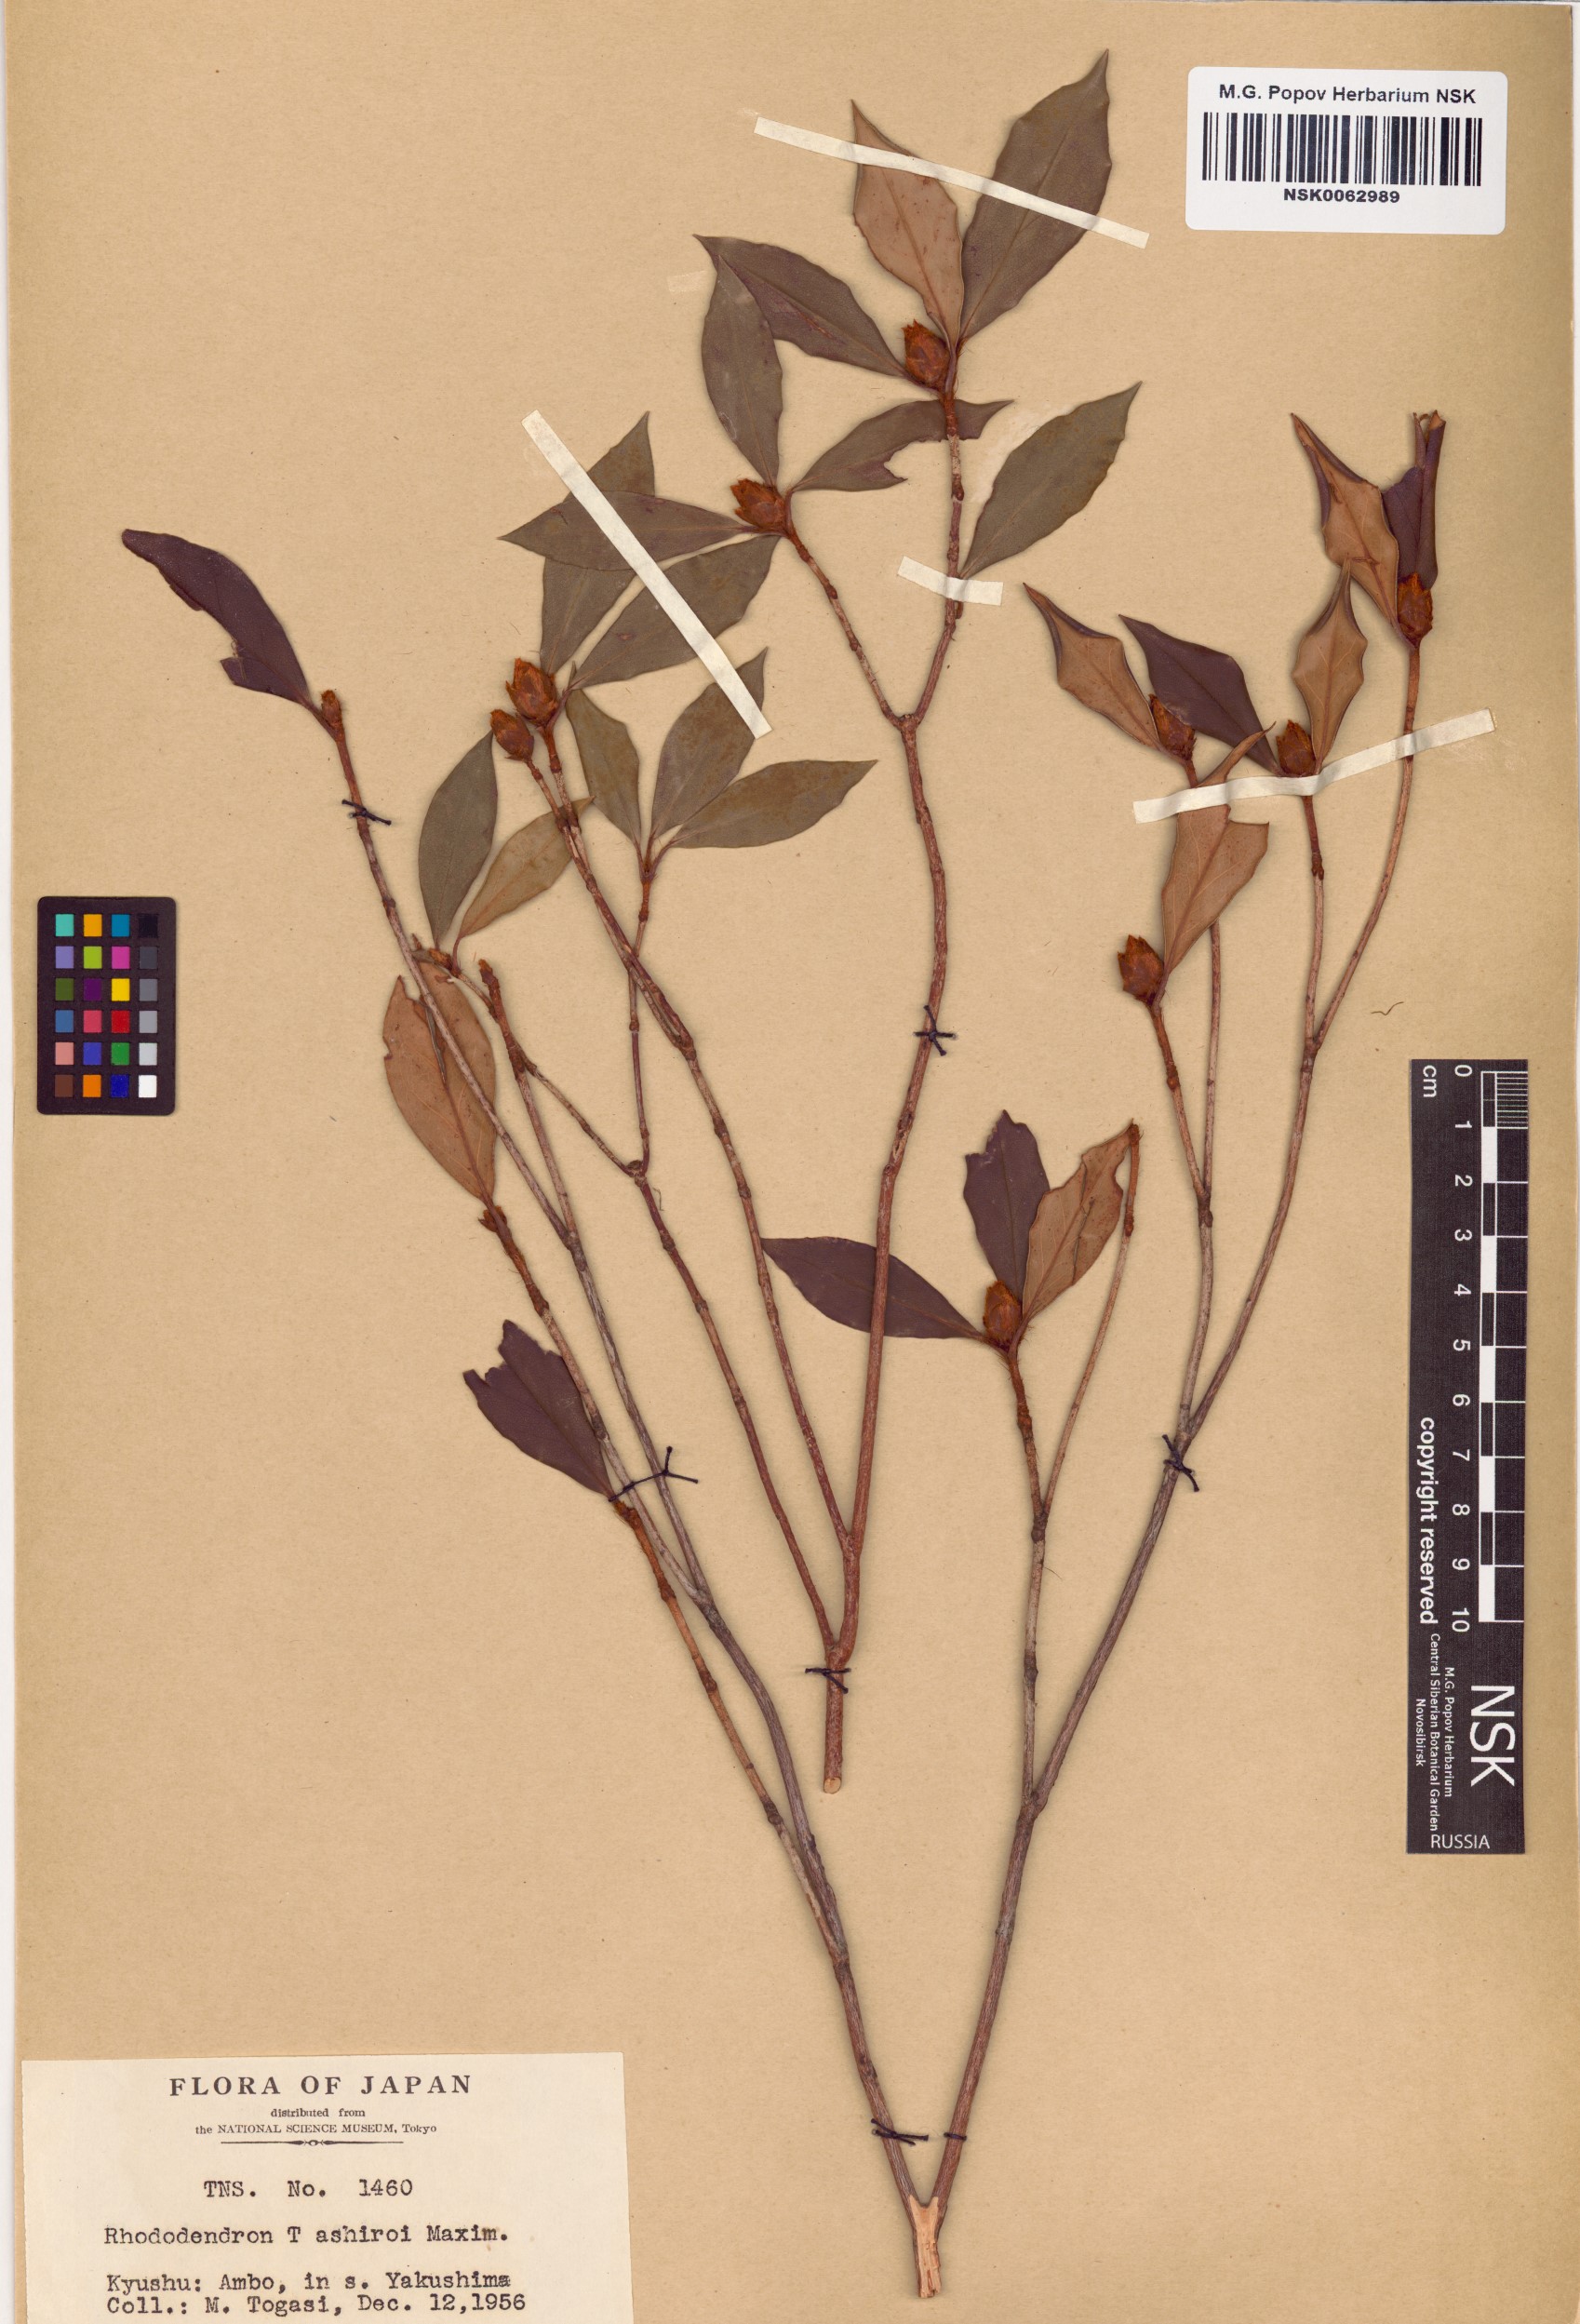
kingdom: Plantae
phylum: Tracheophyta
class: Magnoliopsida
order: Ericales
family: Ericaceae
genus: Rhododendron
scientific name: Rhododendron tashiroi
